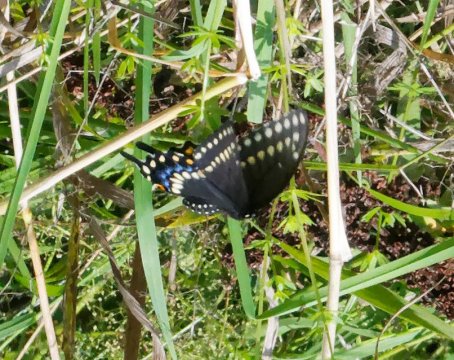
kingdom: Animalia
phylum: Arthropoda
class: Insecta
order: Lepidoptera
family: Papilionidae
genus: Papilio
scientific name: Papilio polyxenes
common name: Black Swallowtail
